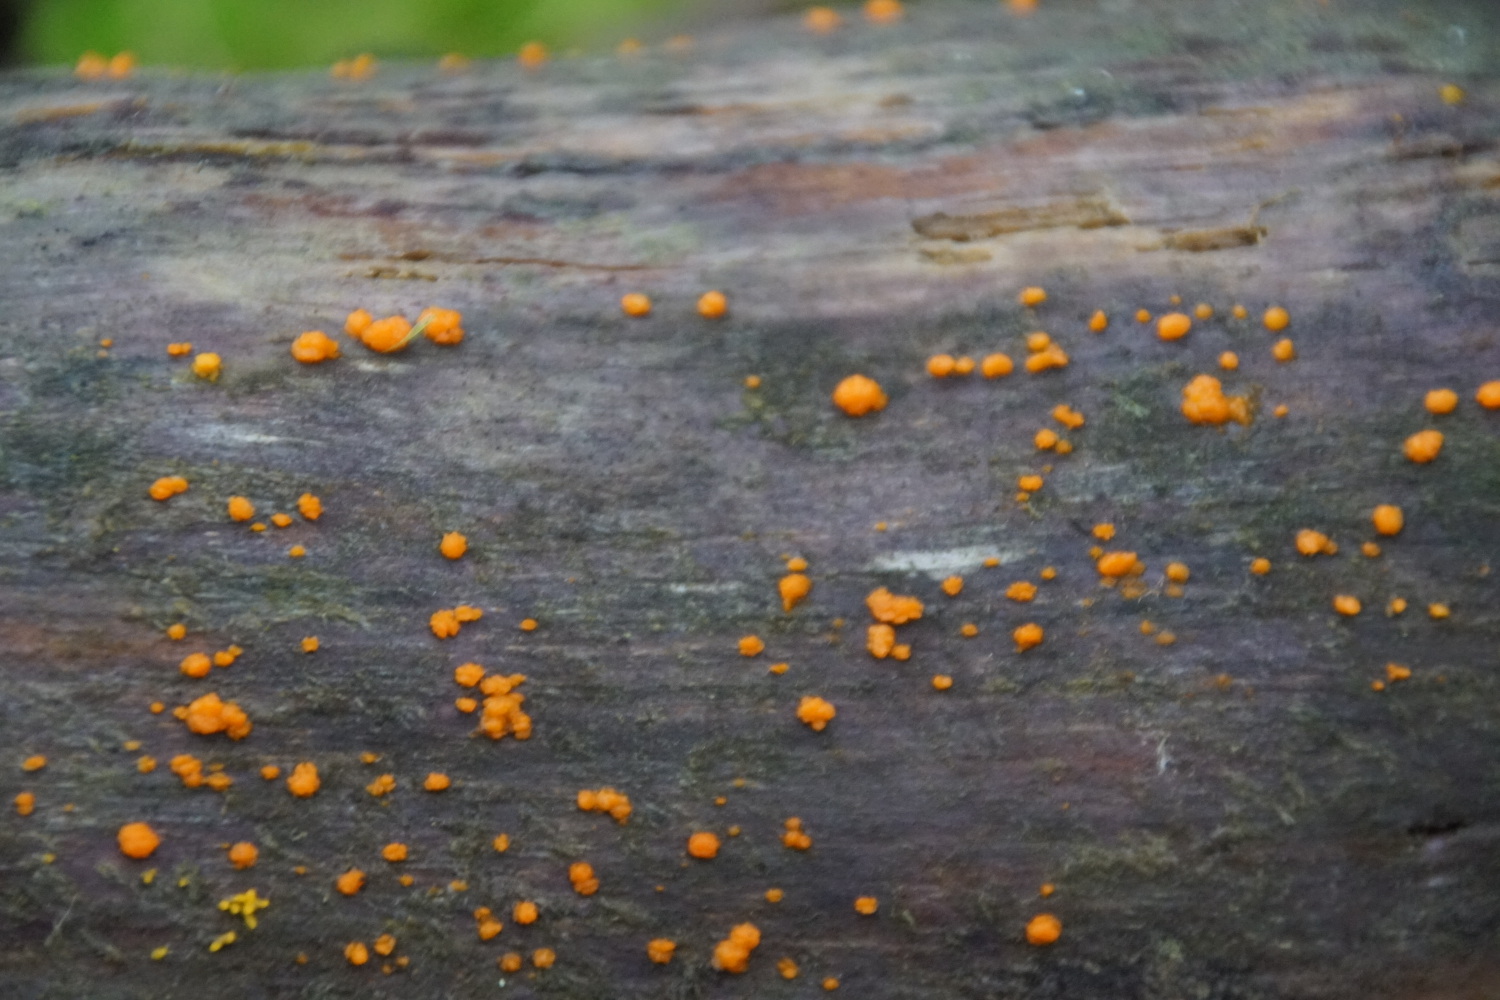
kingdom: Fungi
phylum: Basidiomycota
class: Dacrymycetes
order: Dacrymycetales
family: Dacrymycetaceae
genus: Dacrymyces
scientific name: Dacrymyces stillatus
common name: almindelig tåresvamp
